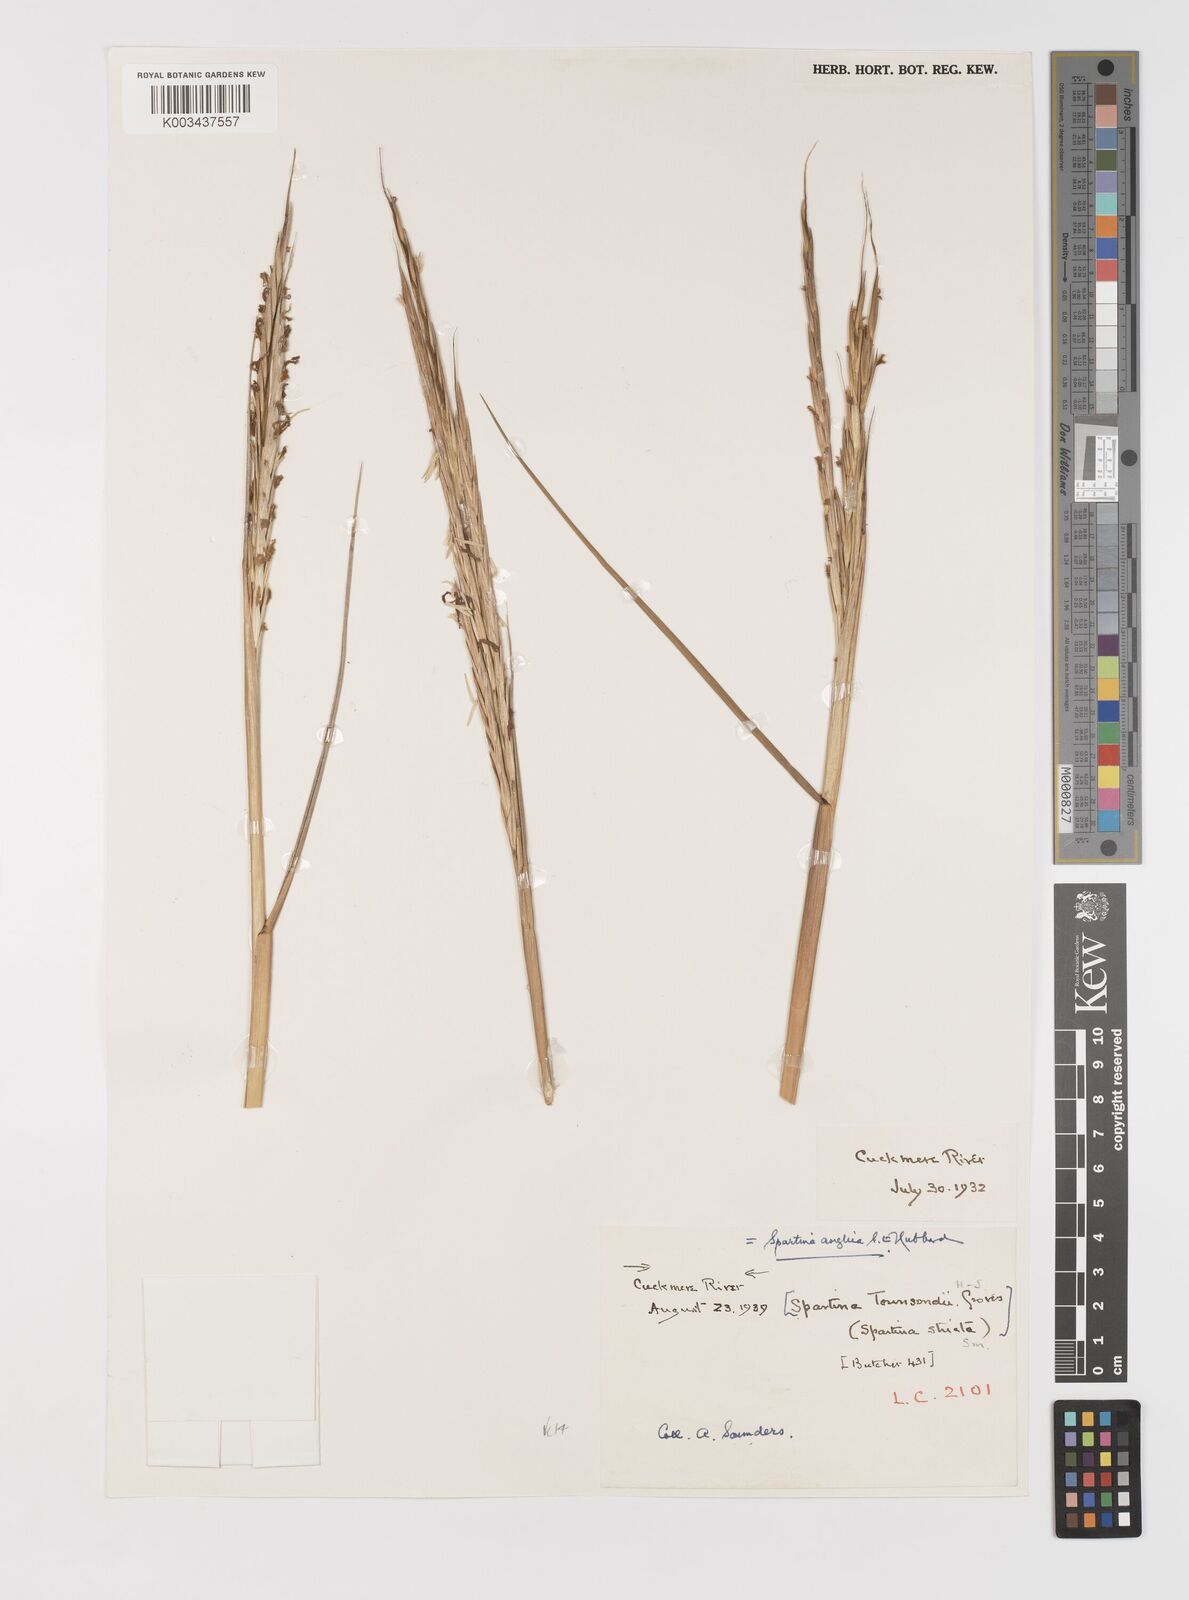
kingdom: Plantae
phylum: Tracheophyta
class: Liliopsida
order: Poales
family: Poaceae
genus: Sporobolus
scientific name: Sporobolus anglicus
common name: English cordgrass
